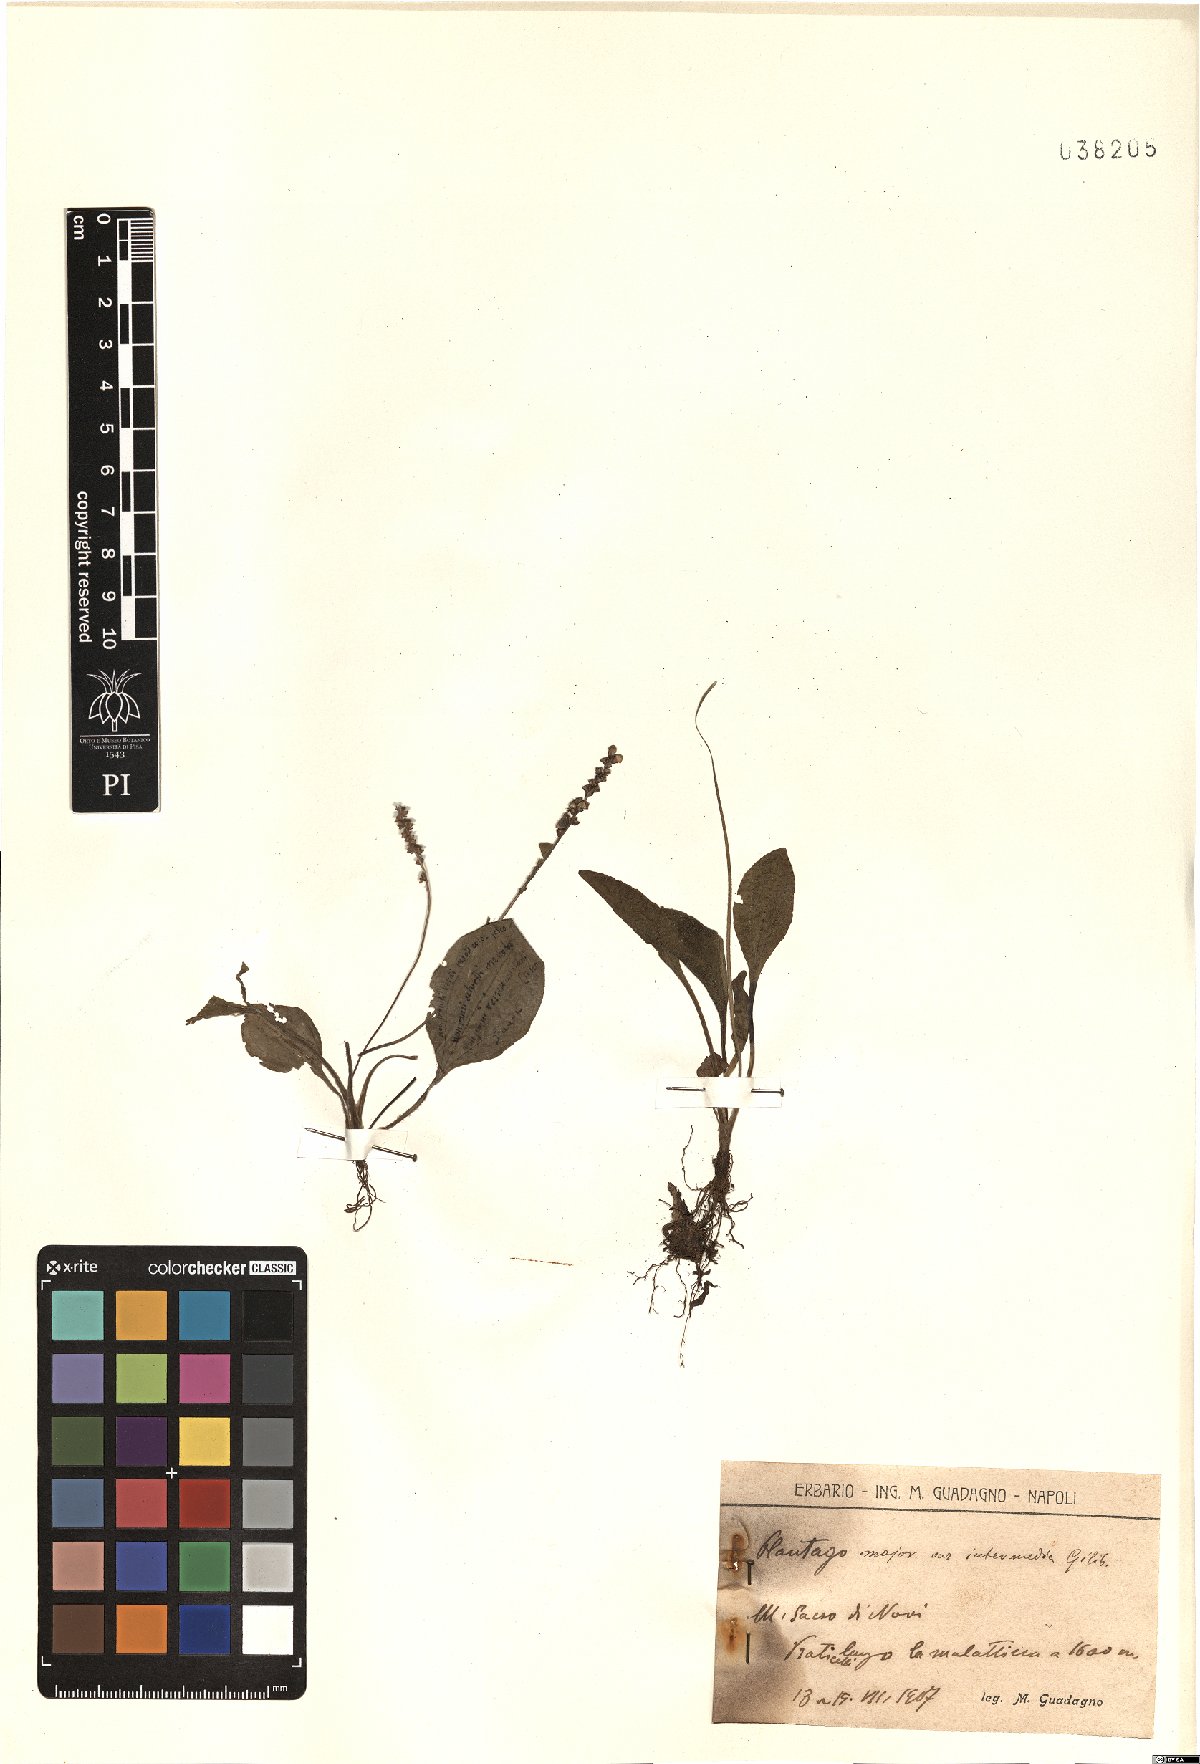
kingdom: Plantae
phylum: Tracheophyta
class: Magnoliopsida
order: Lamiales
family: Plantaginaceae
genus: Plantago
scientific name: Plantago uliginosa
